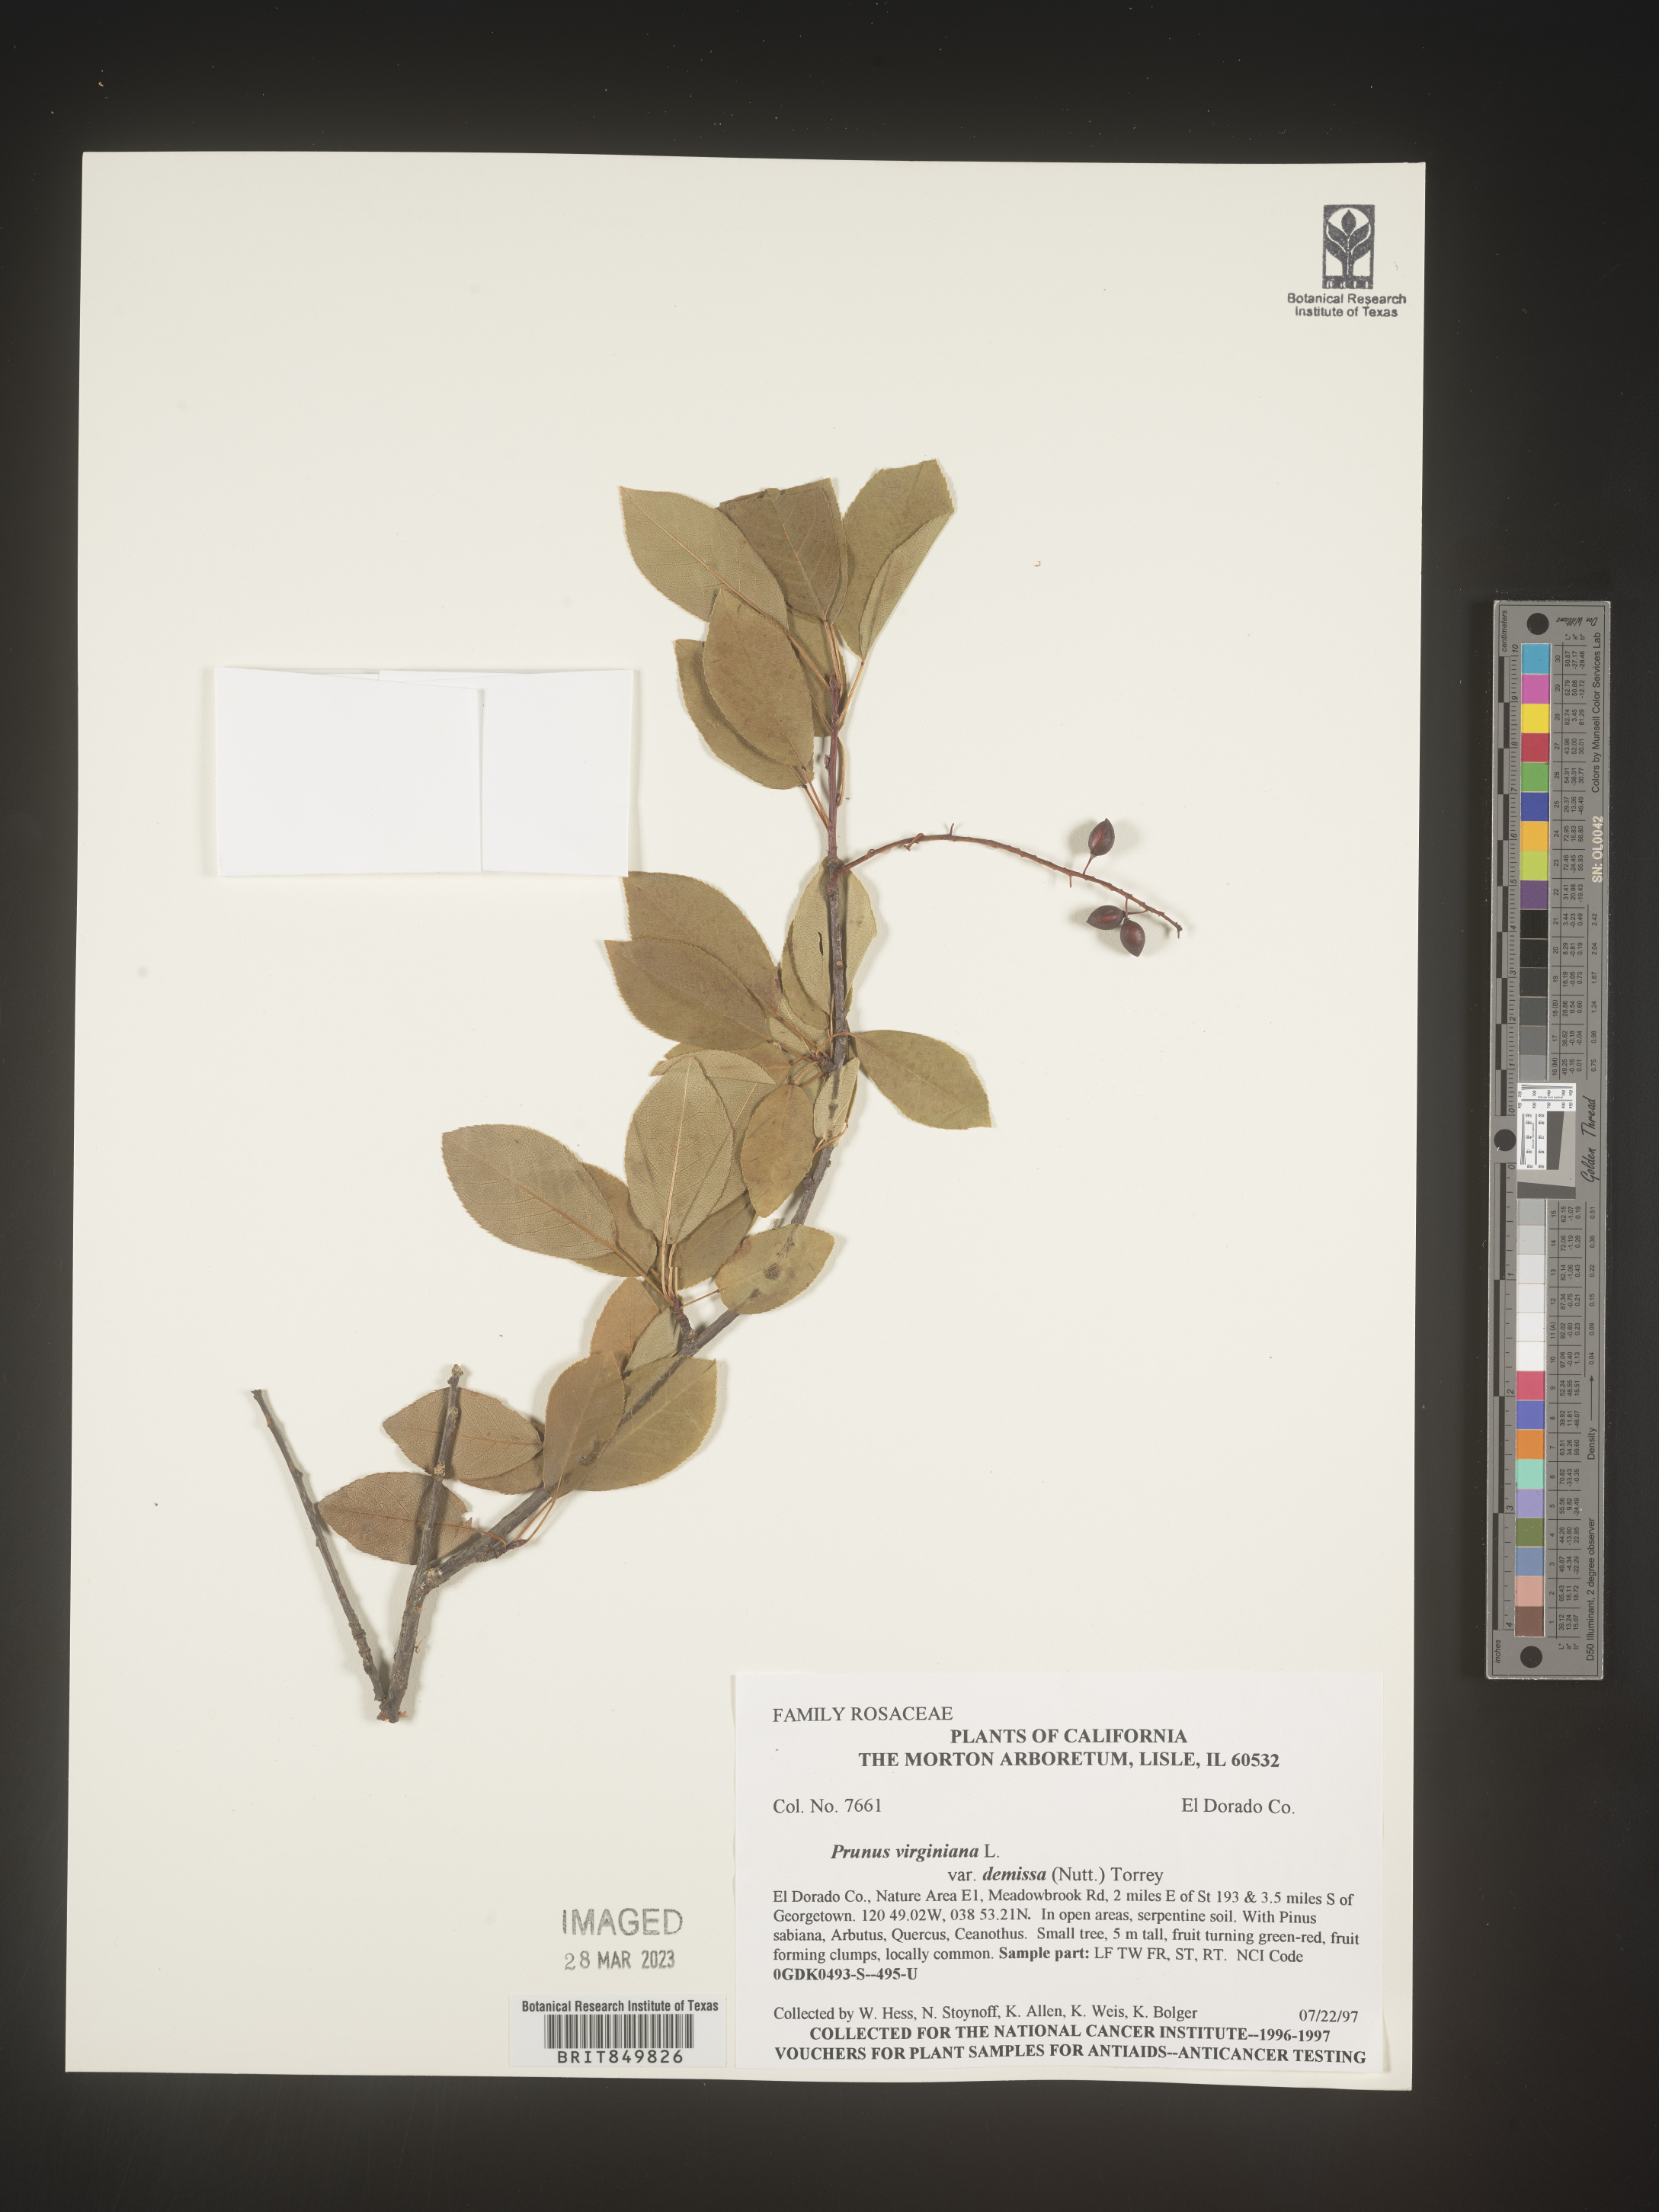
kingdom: Plantae
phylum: Tracheophyta
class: Magnoliopsida
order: Rosales
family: Rosaceae
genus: Prunus
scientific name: Prunus virginiana
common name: Chokecherry
